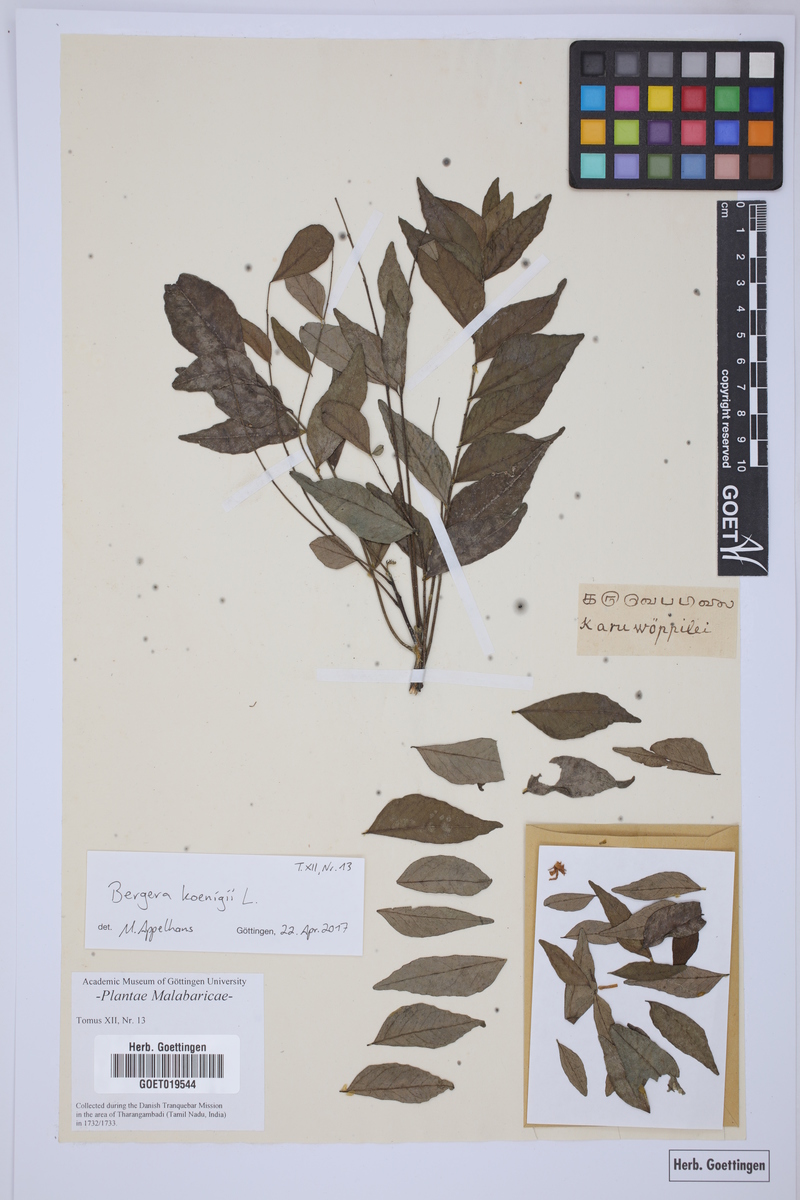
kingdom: Plantae
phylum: Tracheophyta
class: Magnoliopsida
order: Sapindales
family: Rutaceae
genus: Murraya
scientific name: Murraya koenigii
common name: Curry-plant
